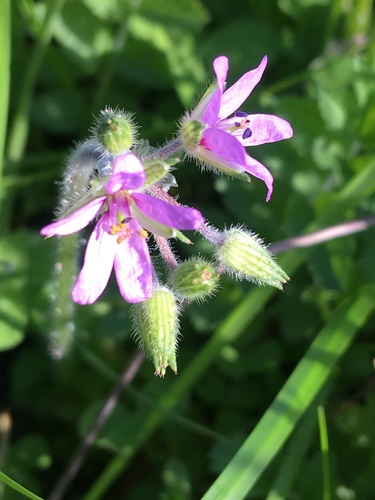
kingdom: Plantae
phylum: Tracheophyta
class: Magnoliopsida
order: Geraniales
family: Geraniaceae
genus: Erodium
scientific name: Erodium moschatum
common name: Musk stork's-bill
